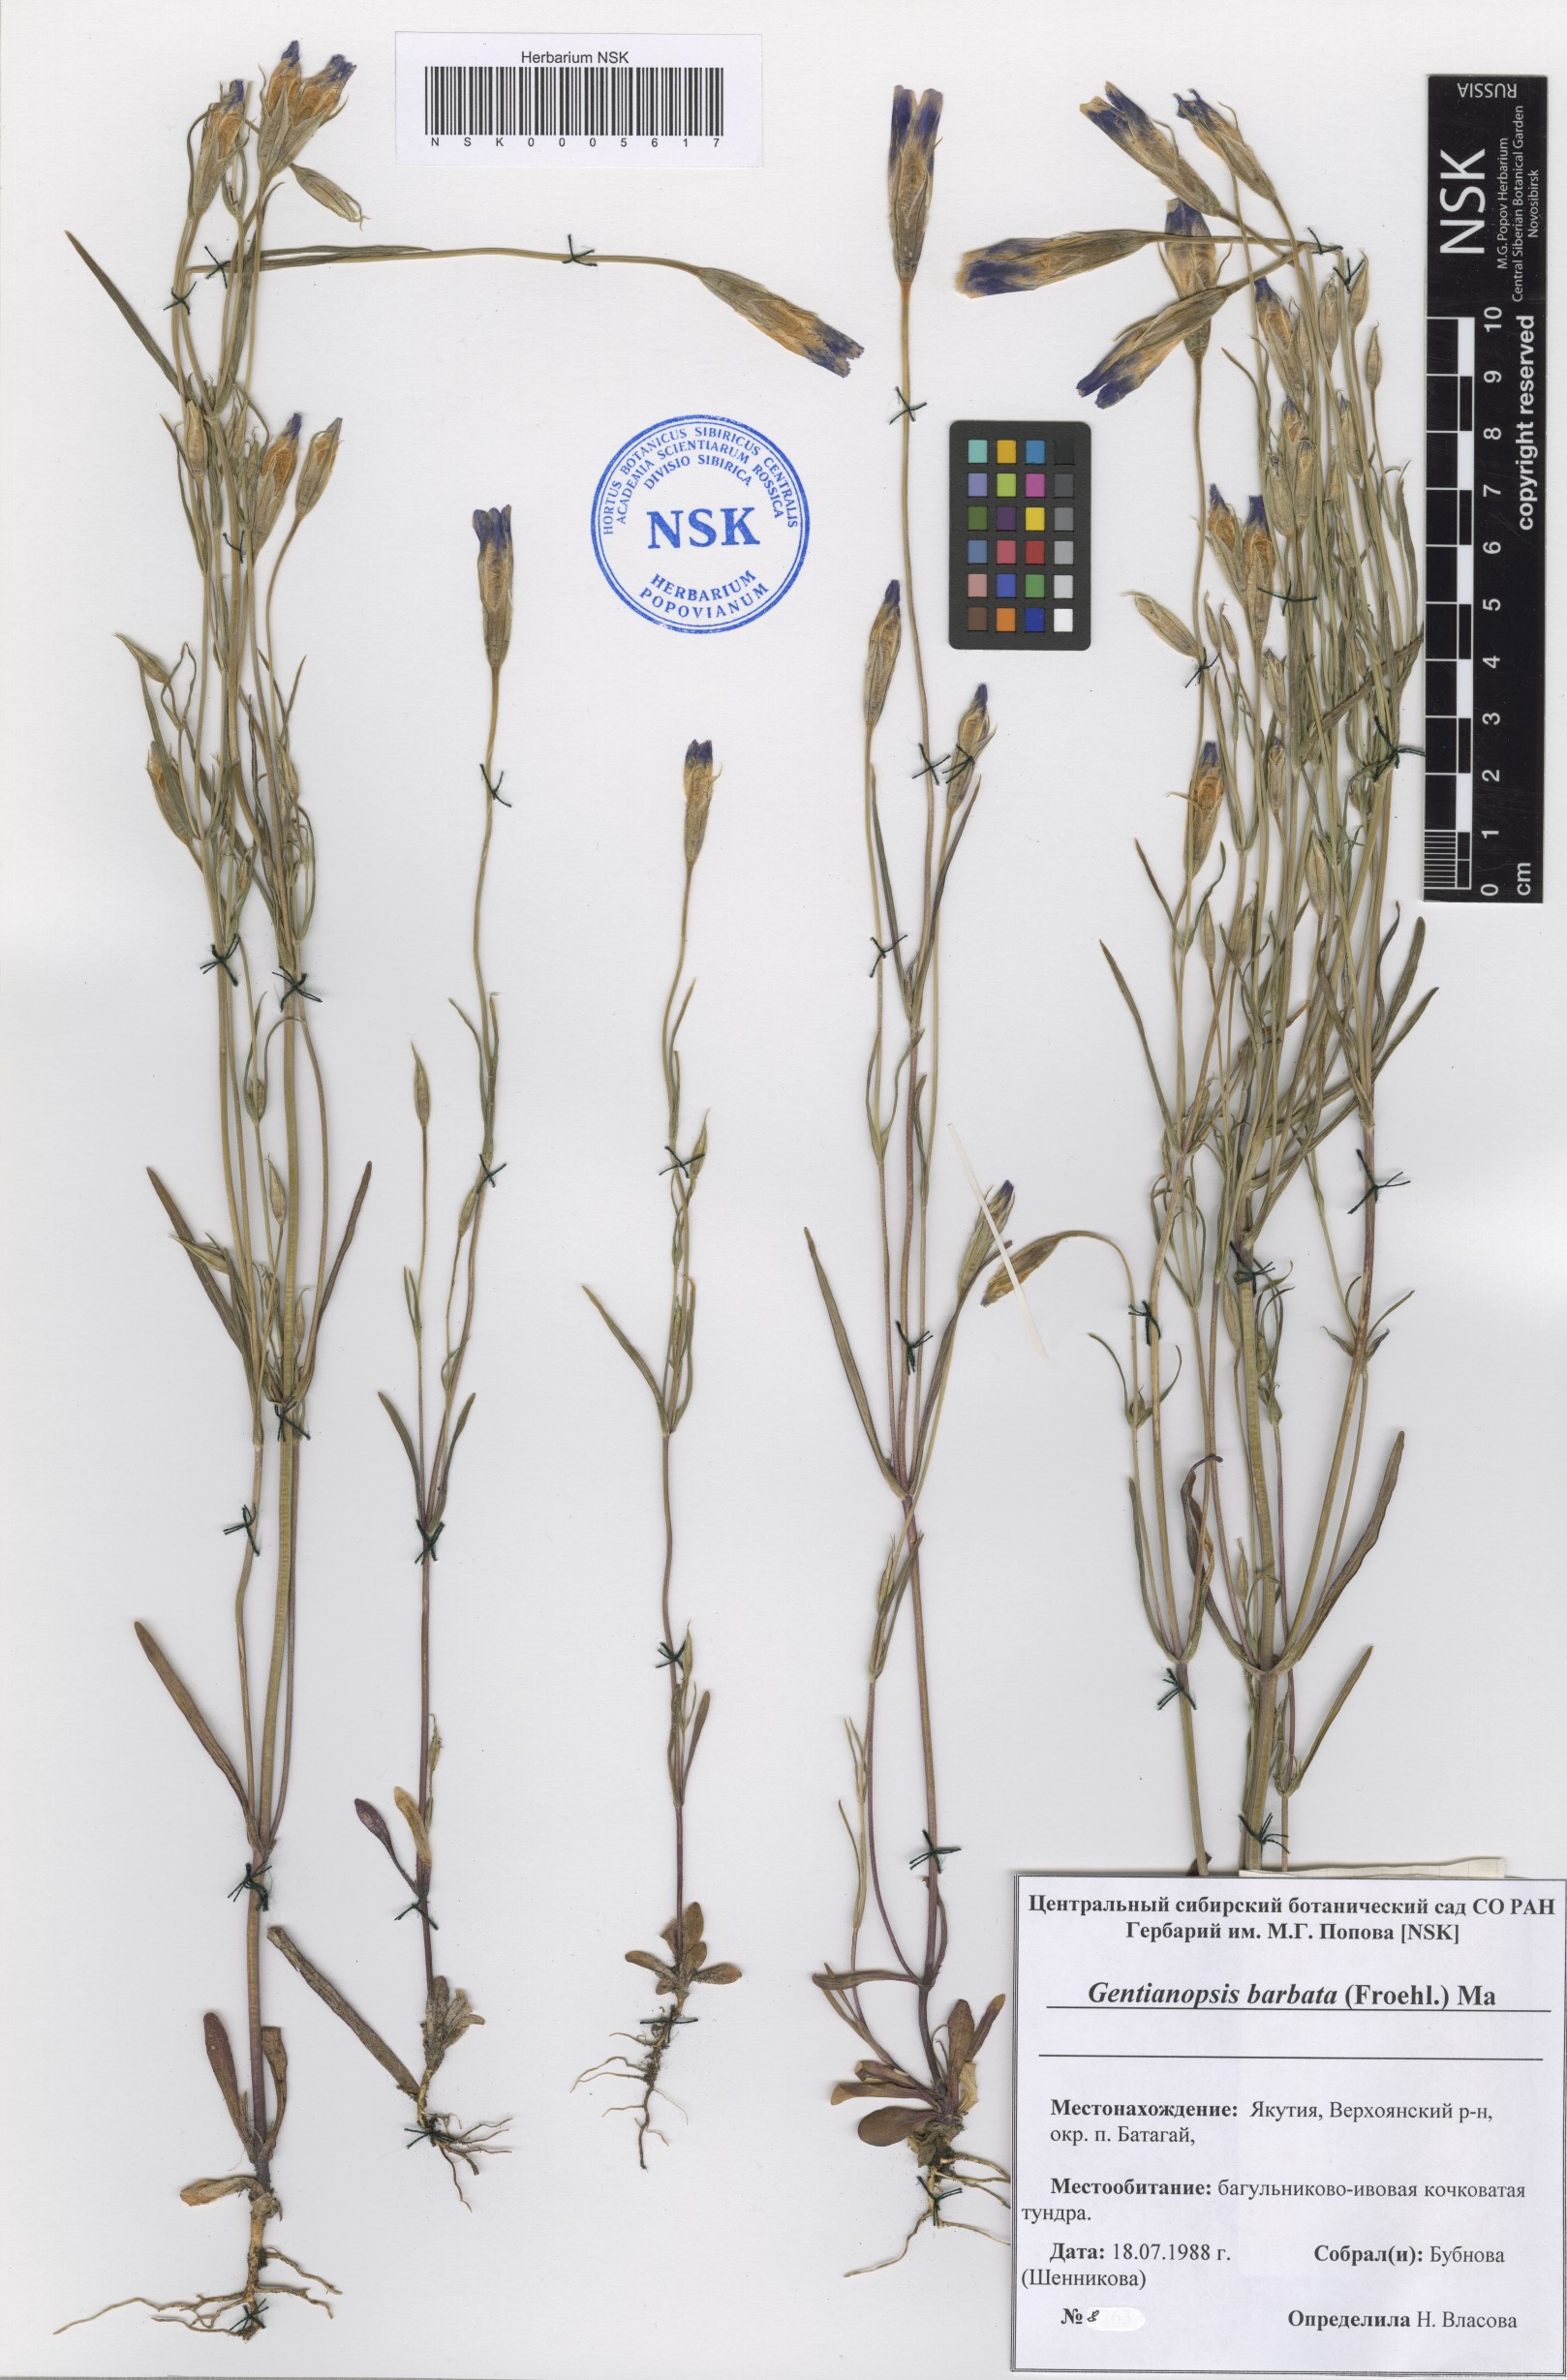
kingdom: Plantae
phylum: Tracheophyta
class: Magnoliopsida
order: Gentianales
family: Gentianaceae
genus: Gentianopsis
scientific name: Gentianopsis barbata
